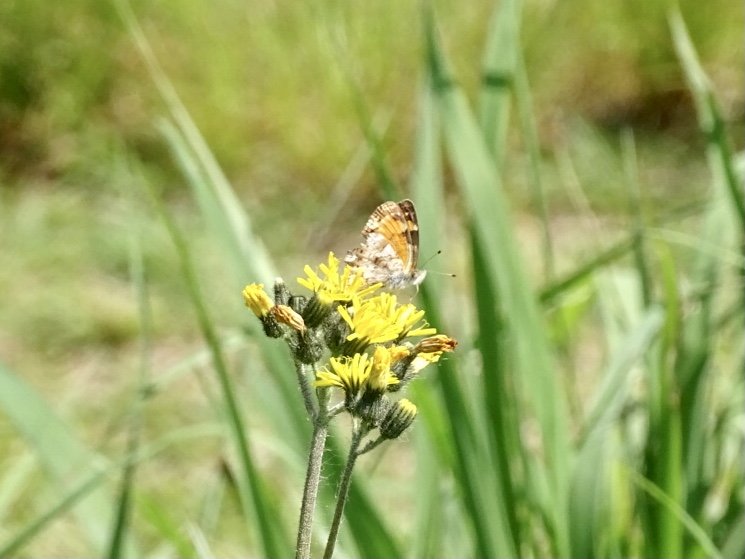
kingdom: Animalia
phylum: Arthropoda
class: Insecta
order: Lepidoptera
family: Nymphalidae
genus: Phyciodes
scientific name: Phyciodes tharos
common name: Pearl Crescent
